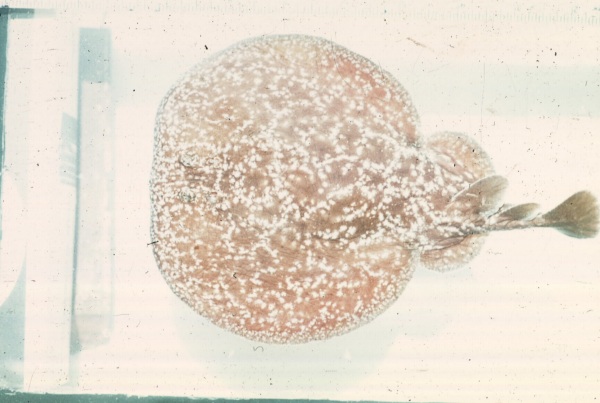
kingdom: Animalia
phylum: Chordata
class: Elasmobranchii
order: Torpediniformes
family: Torpedinidae
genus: Torpedo
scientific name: Torpedo fuscomaculata
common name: Blackspotted electric ray
